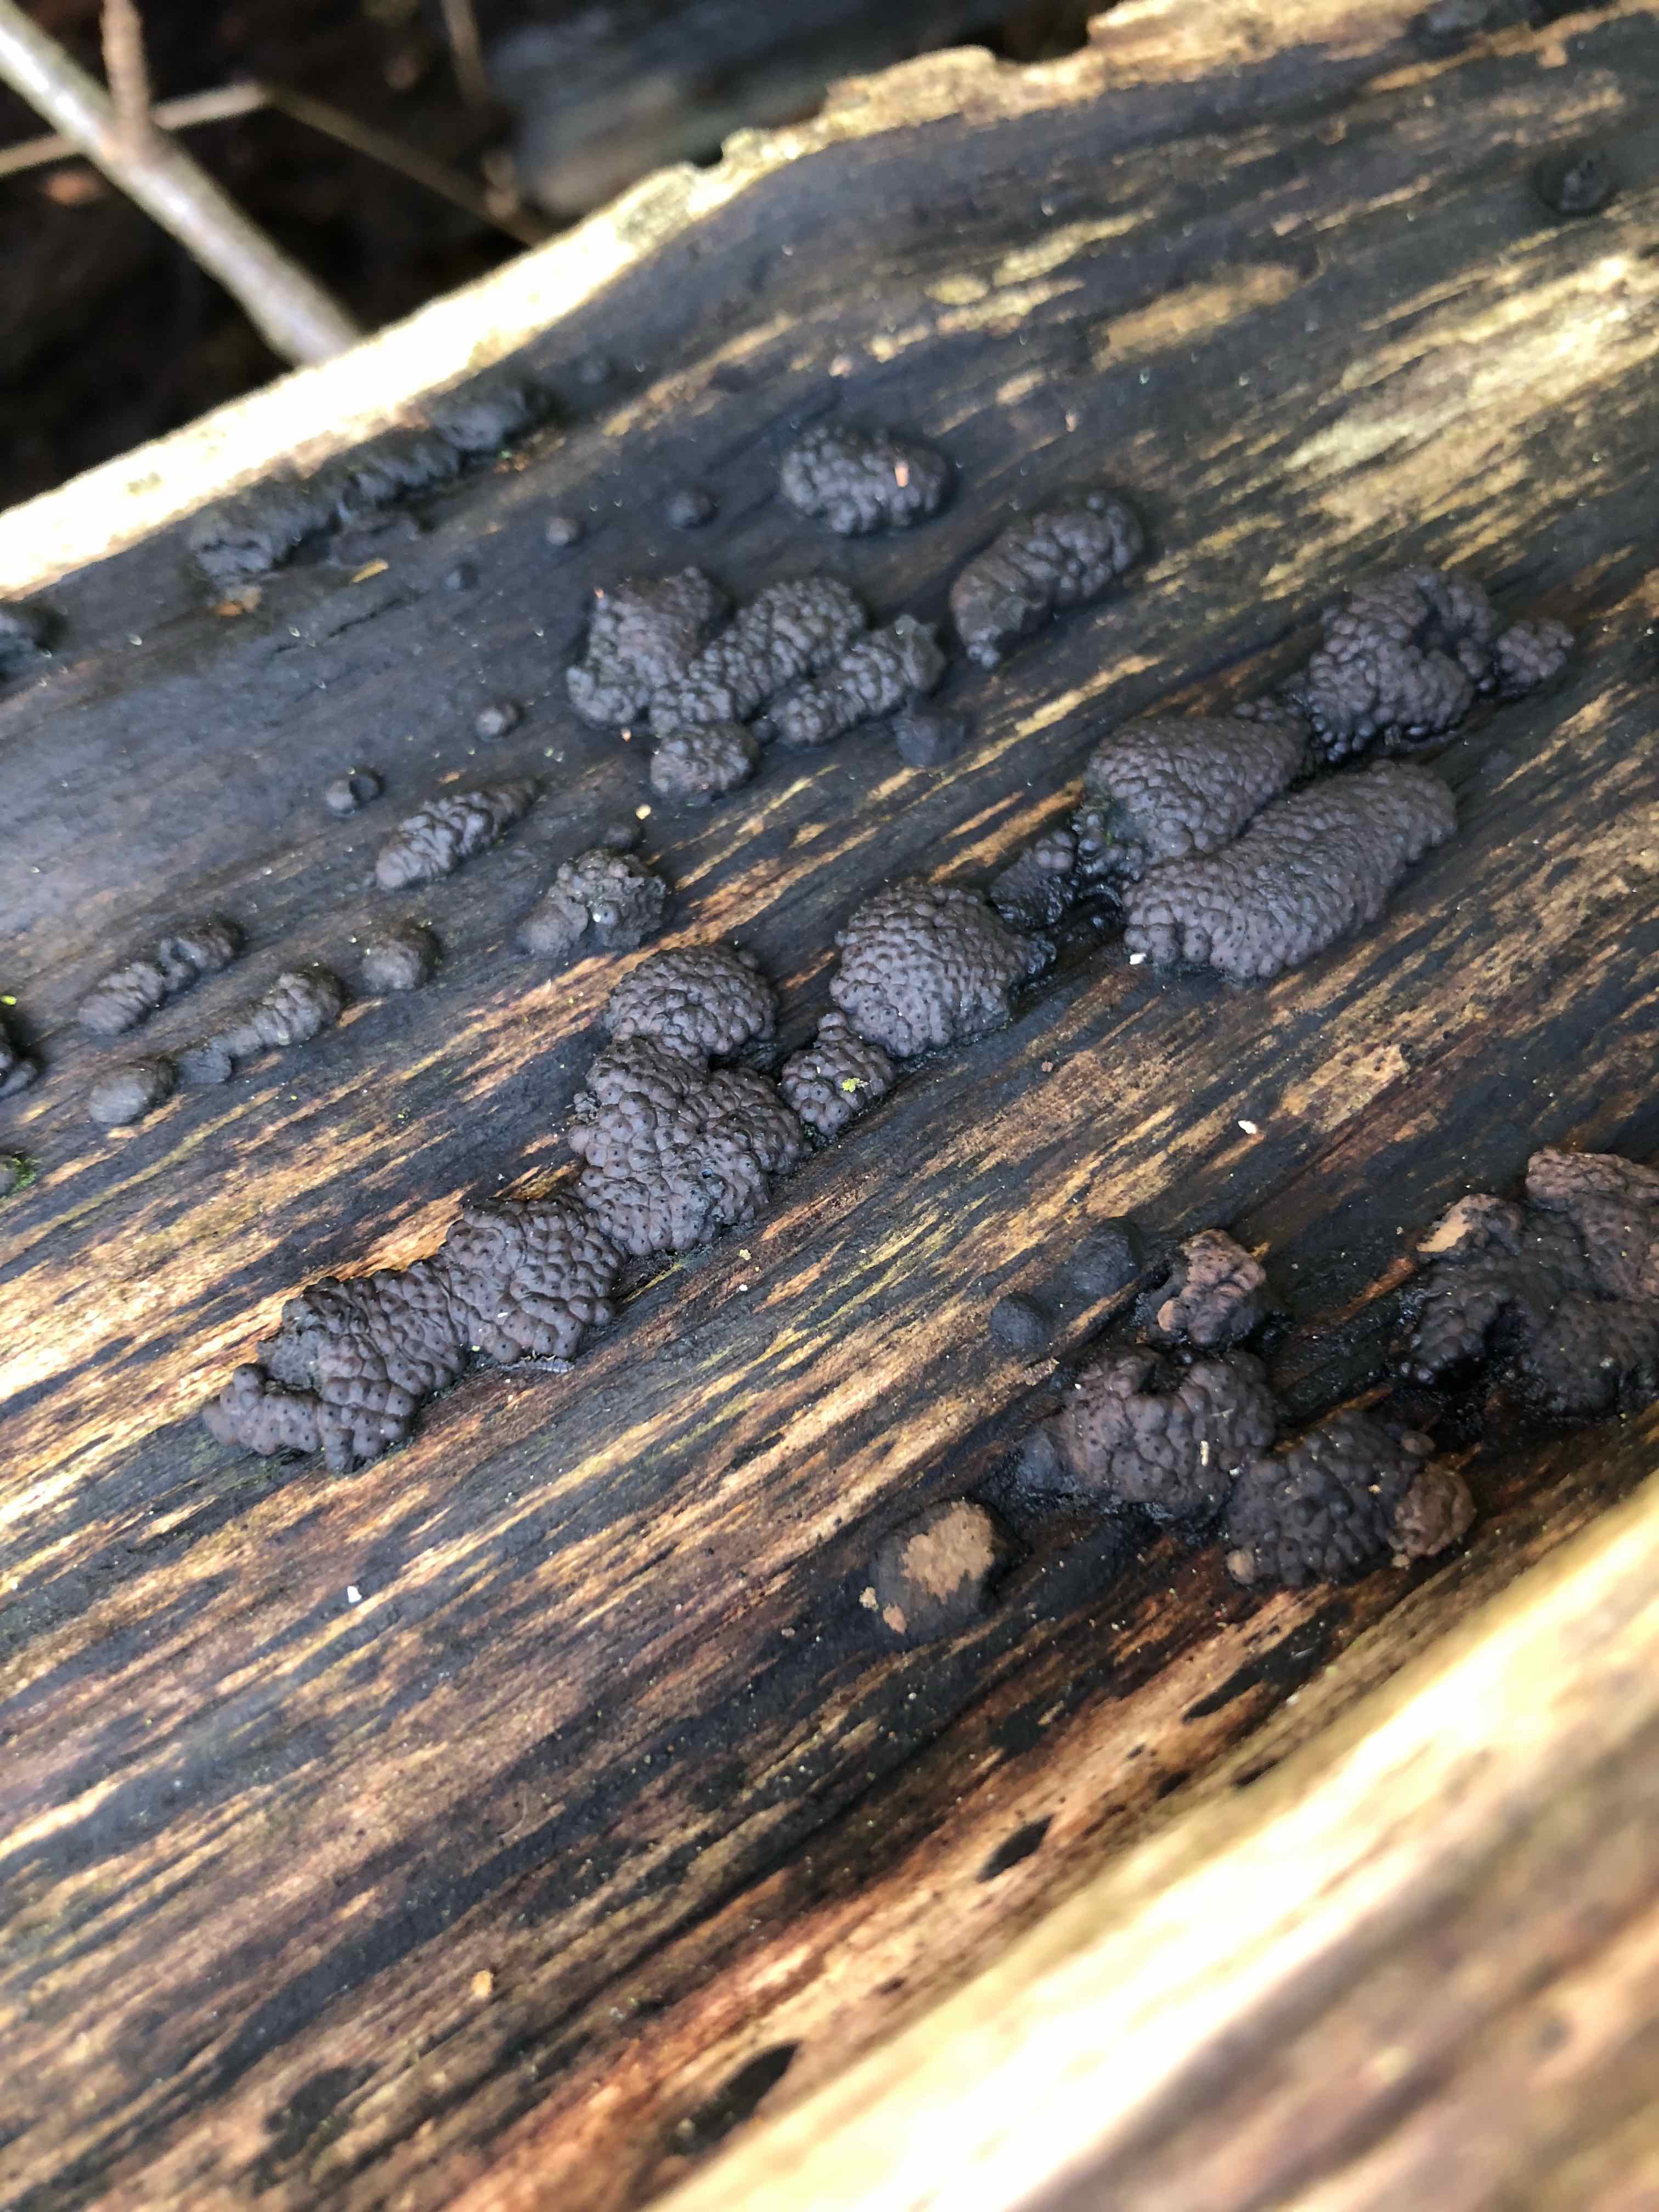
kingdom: Fungi
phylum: Ascomycota
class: Sordariomycetes
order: Xylariales
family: Hypoxylaceae
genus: Jackrogersella
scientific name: Jackrogersella multiformis
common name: foranderlig kulbær
